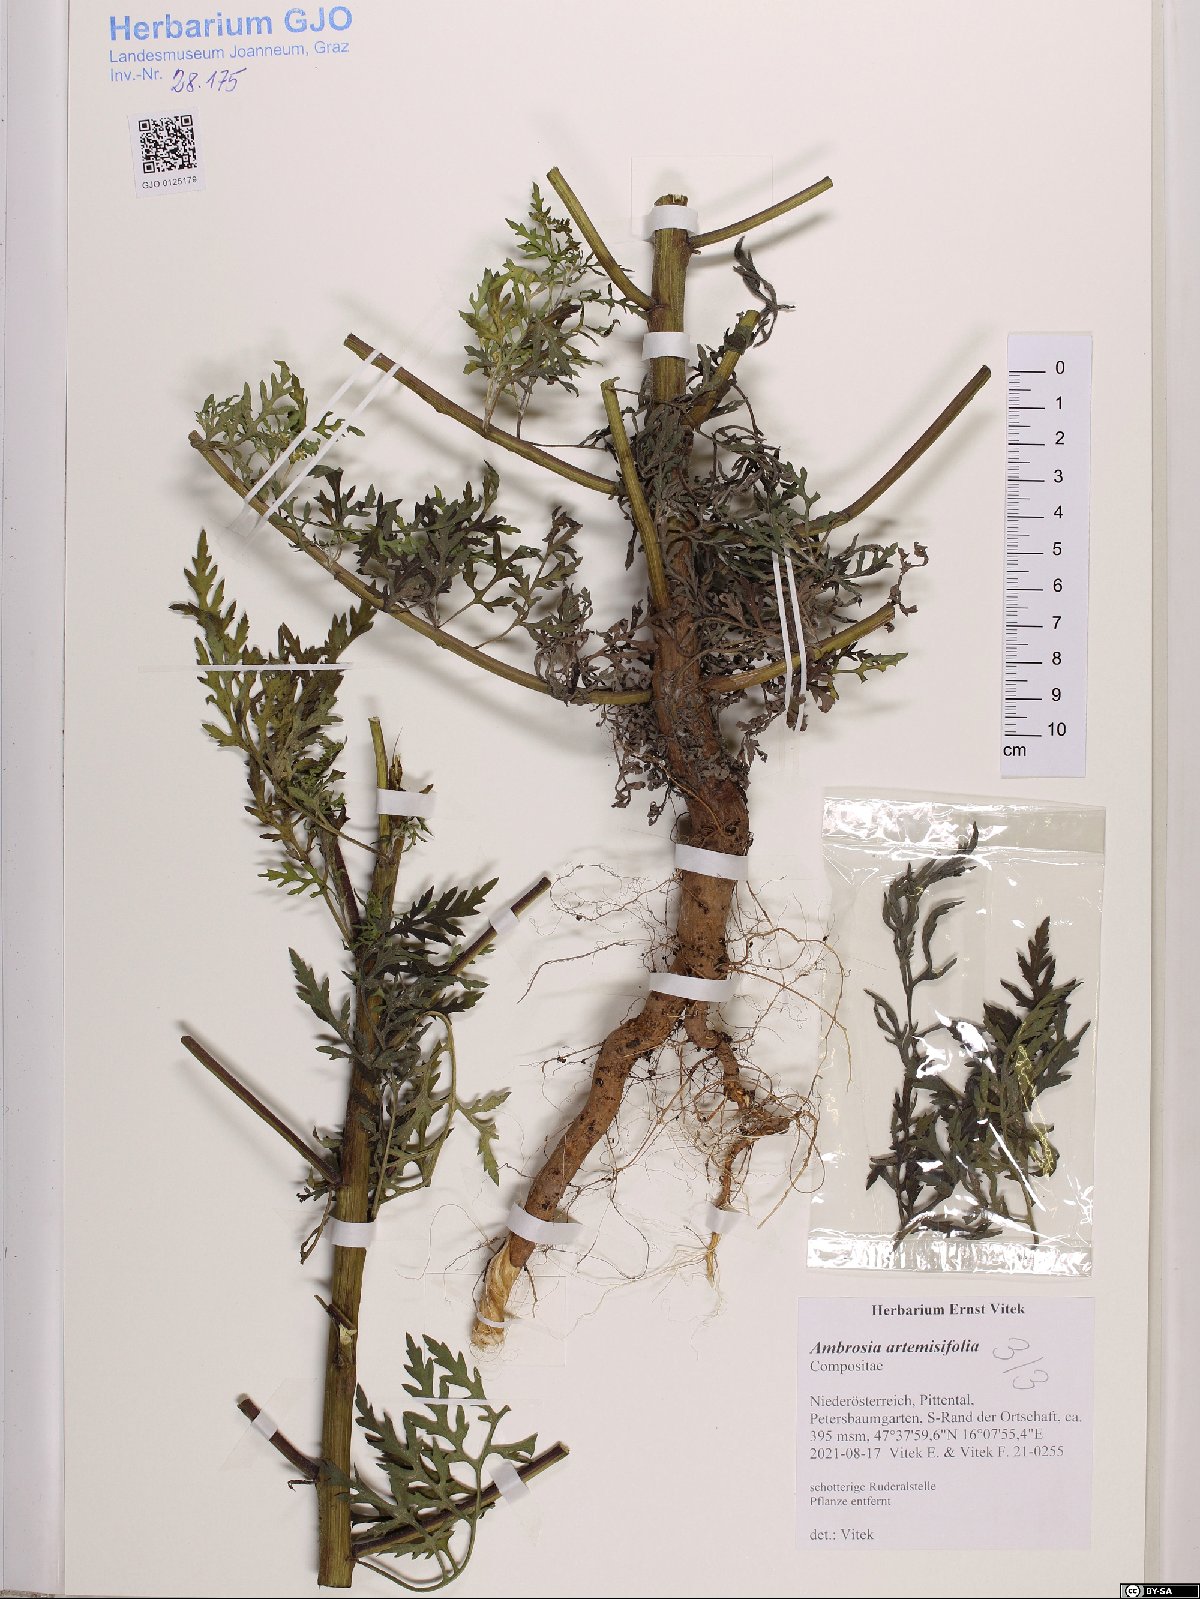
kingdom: Plantae
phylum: Tracheophyta
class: Magnoliopsida
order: Asterales
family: Asteraceae
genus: Ambrosia
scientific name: Ambrosia artemisiifolia
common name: Annual ragweed
